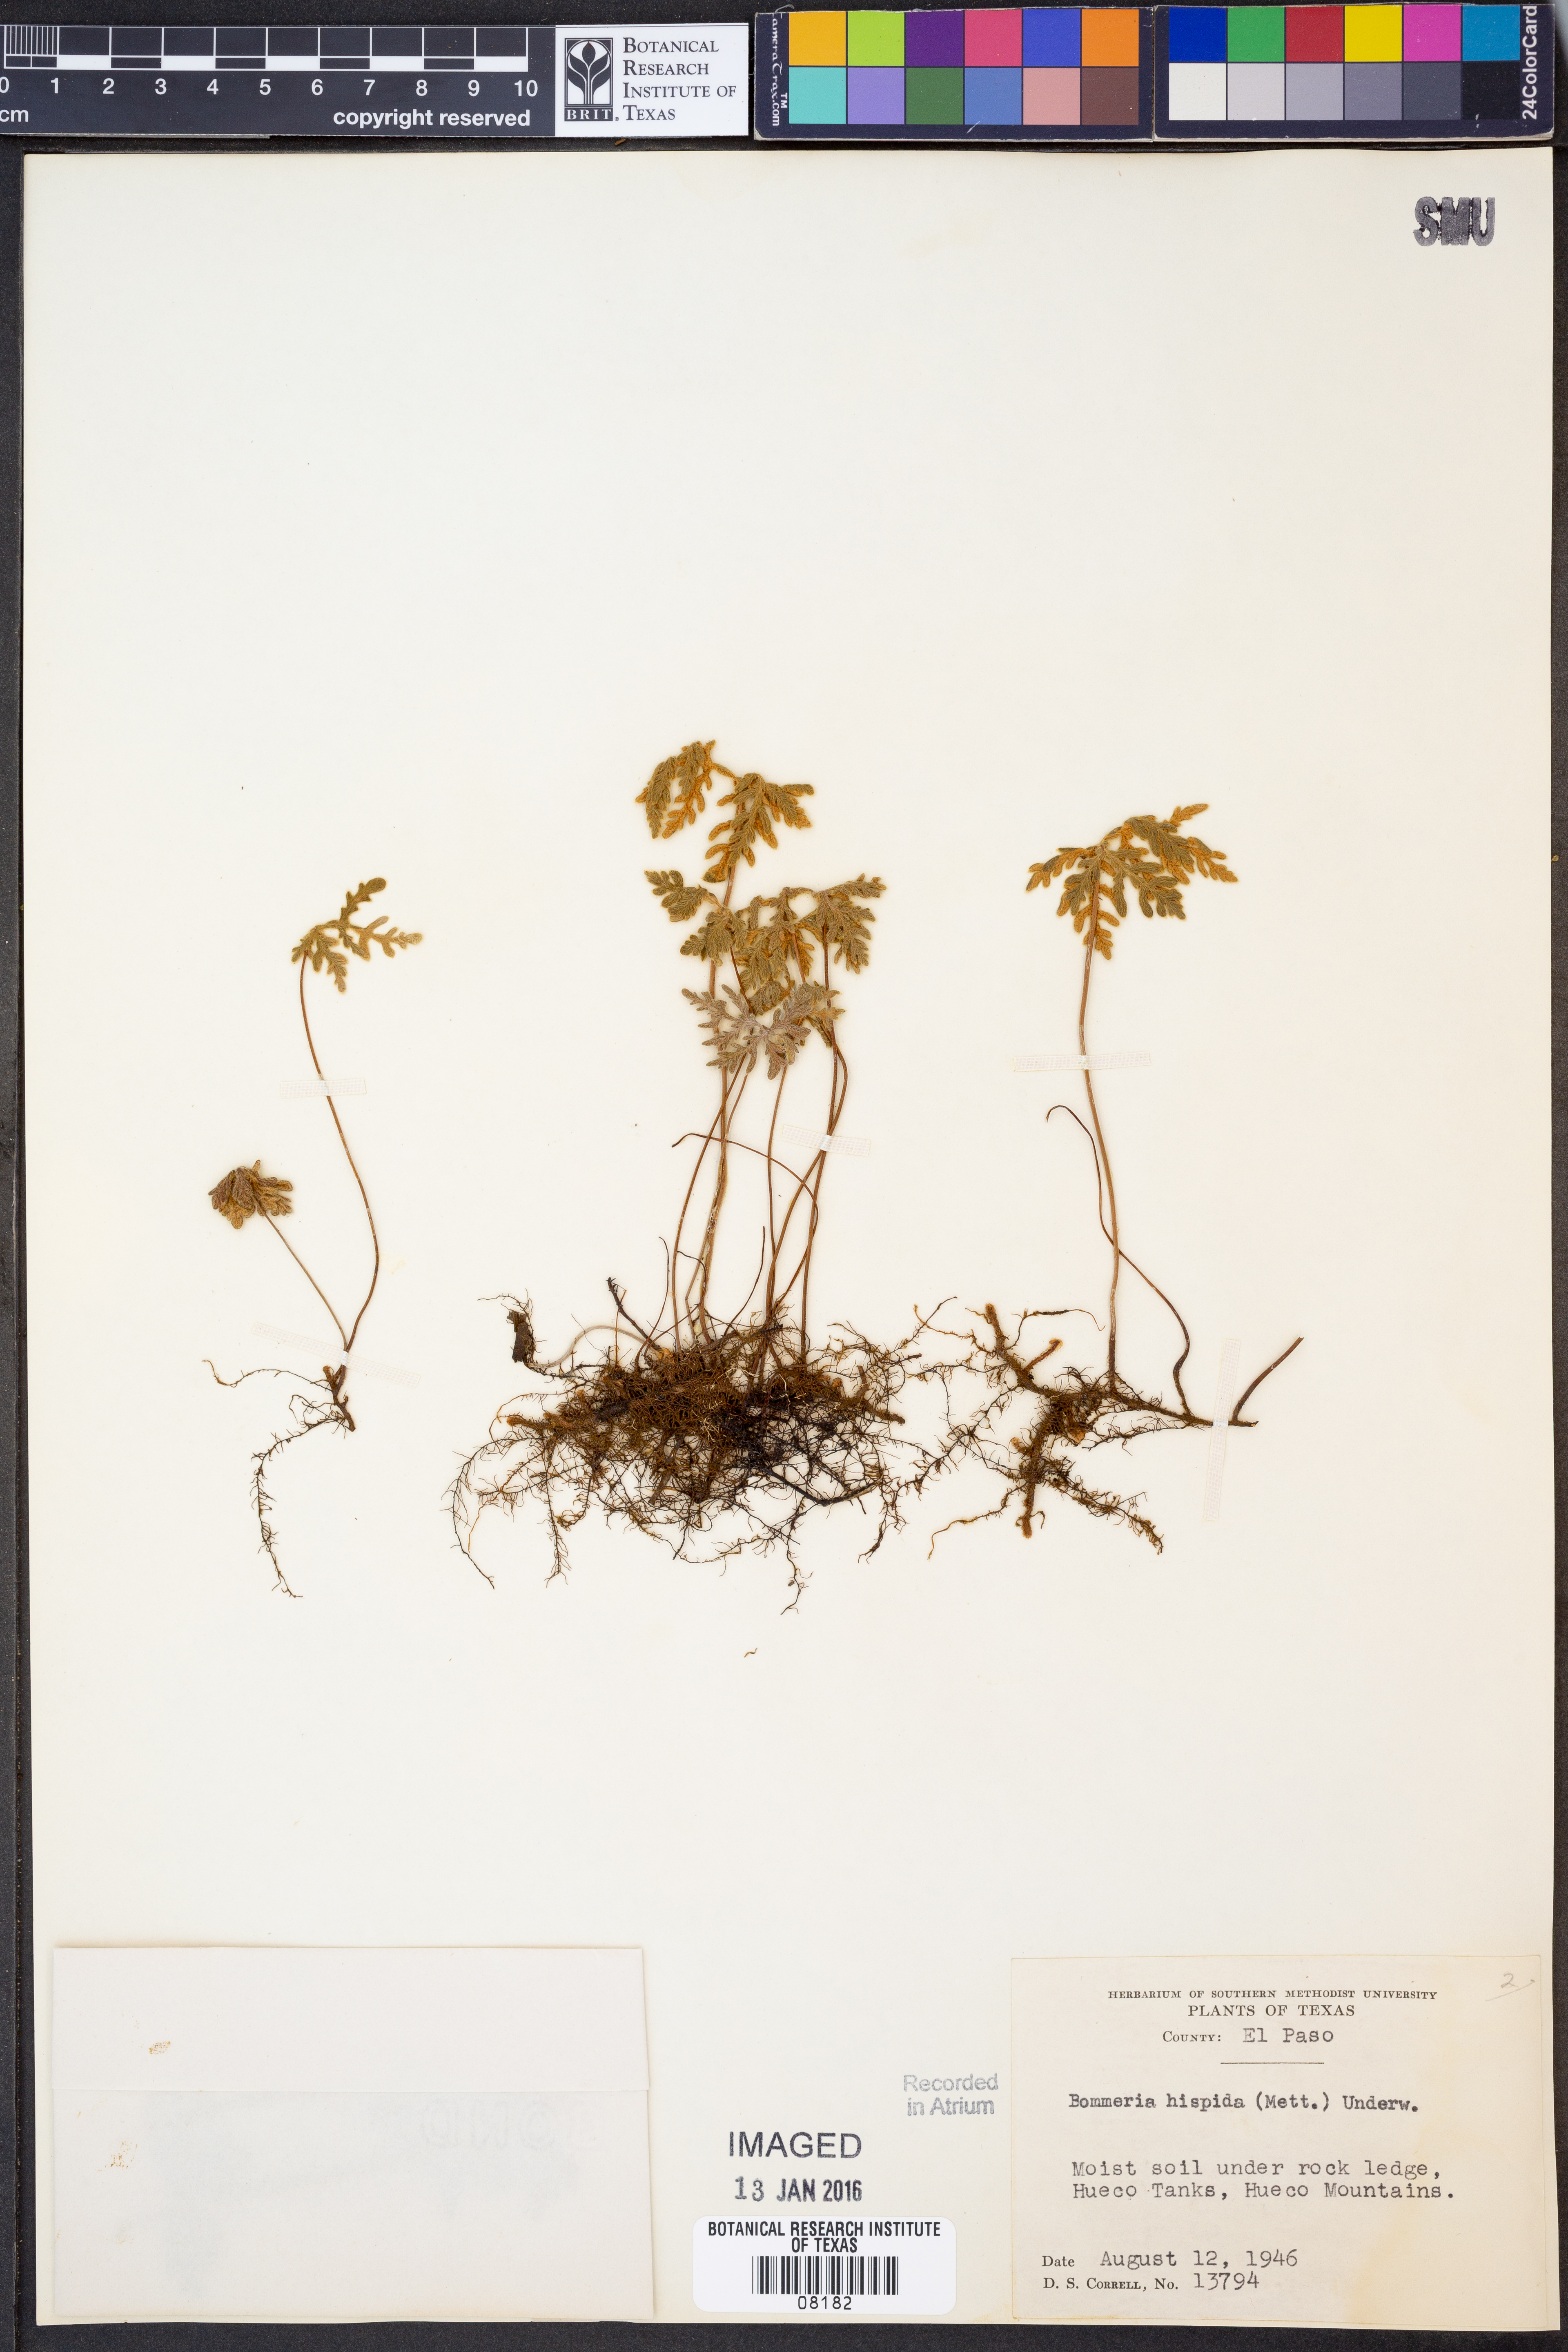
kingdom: Plantae
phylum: Tracheophyta
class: Polypodiopsida
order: Polypodiales
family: Pteridaceae
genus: Bommeria
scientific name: Bommeria hispida
